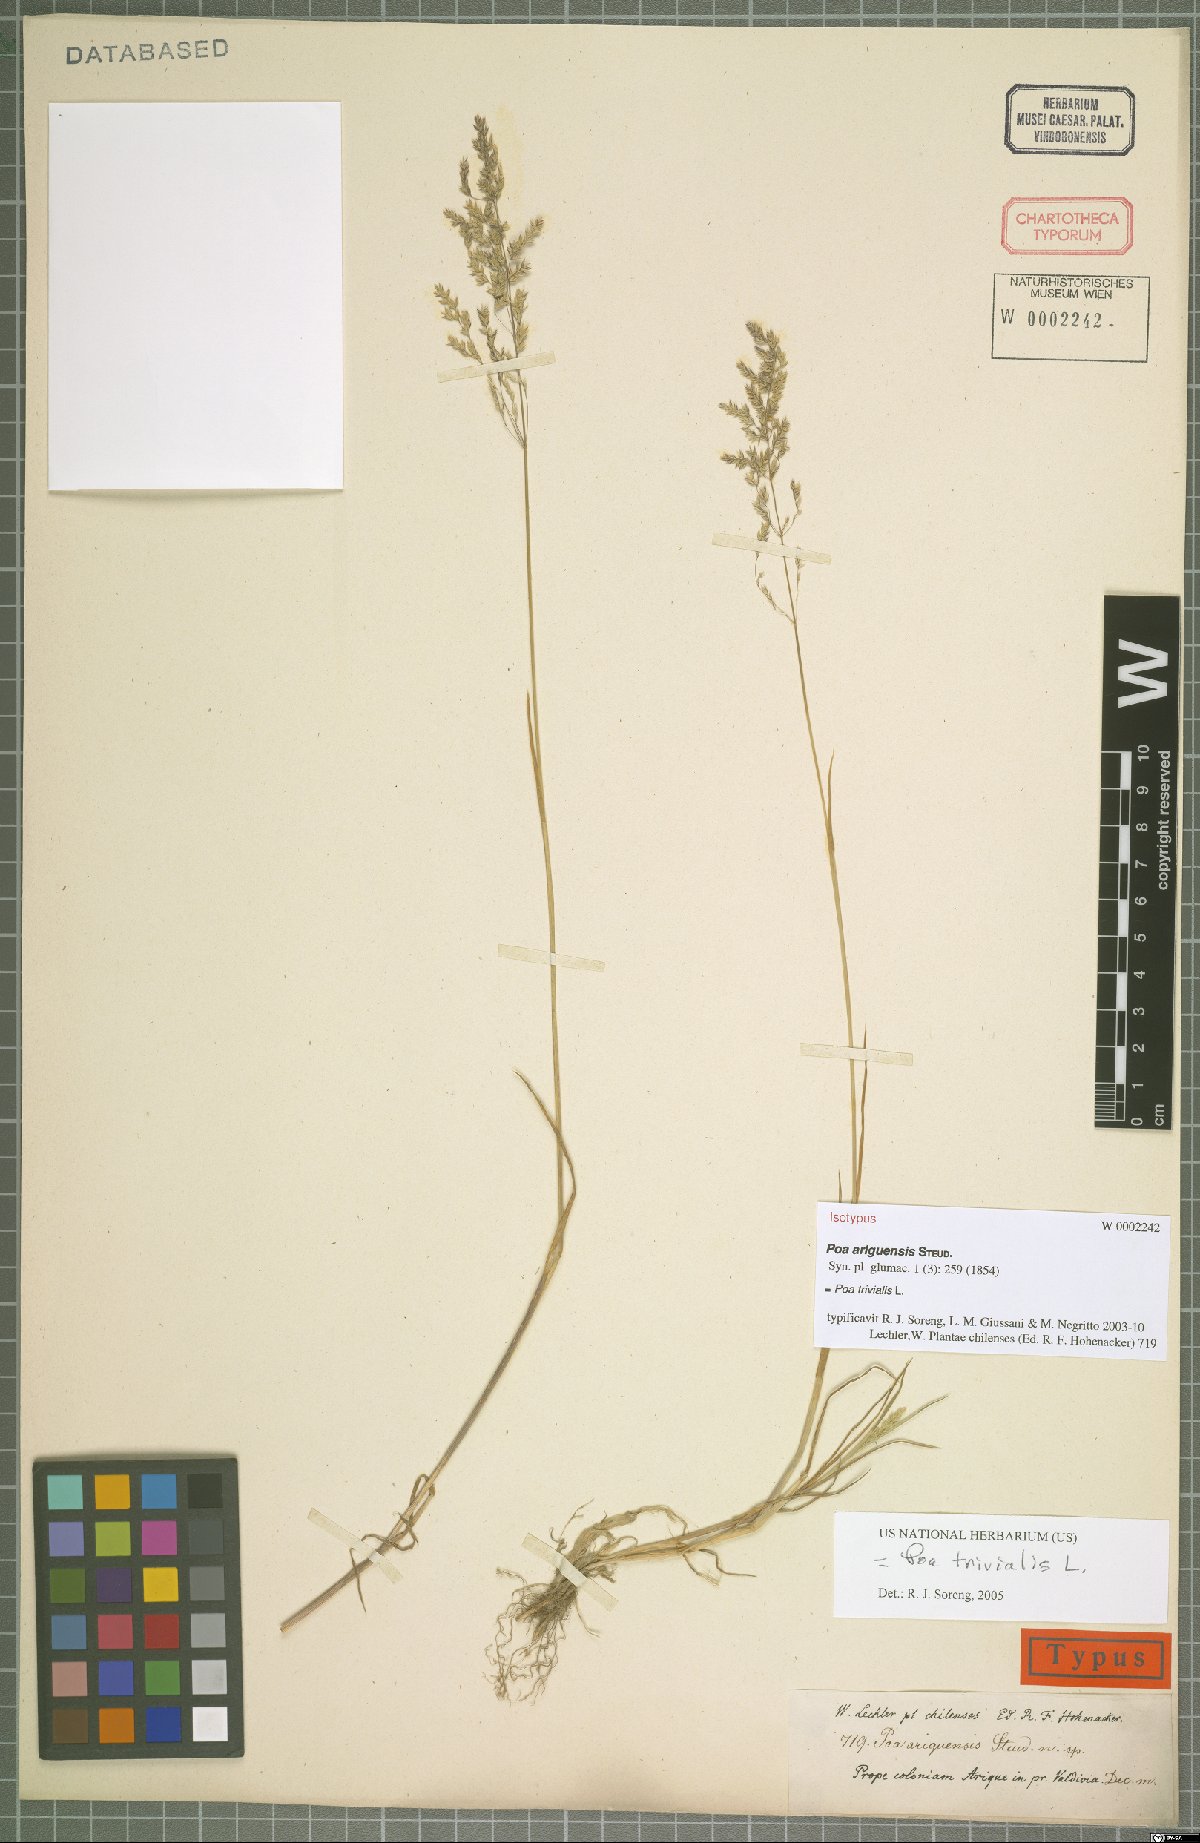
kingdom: Plantae
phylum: Tracheophyta
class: Liliopsida
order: Poales
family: Poaceae
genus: Poa
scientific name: Poa trivialis
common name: Rough bluegrass
